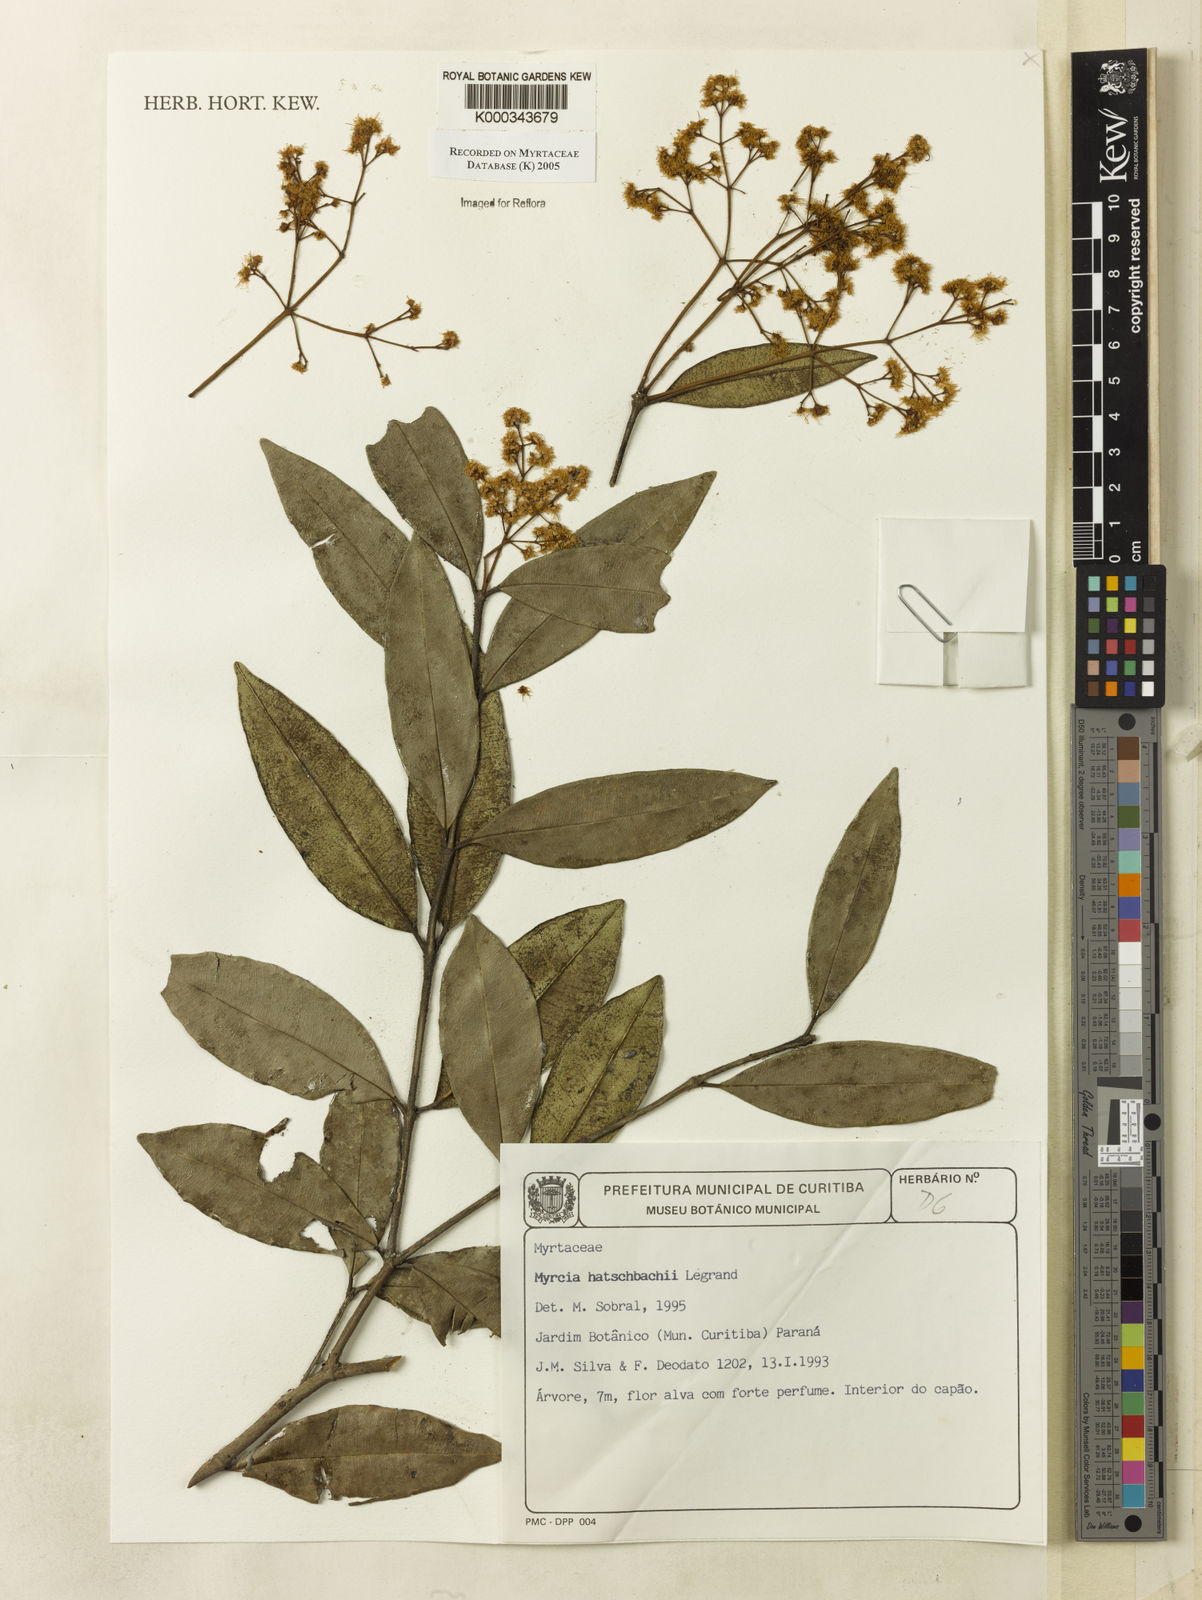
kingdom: Plantae
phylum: Tracheophyta
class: Magnoliopsida
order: Myrtales
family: Myrtaceae
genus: Myrcia
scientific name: Myrcia hatschbachii
